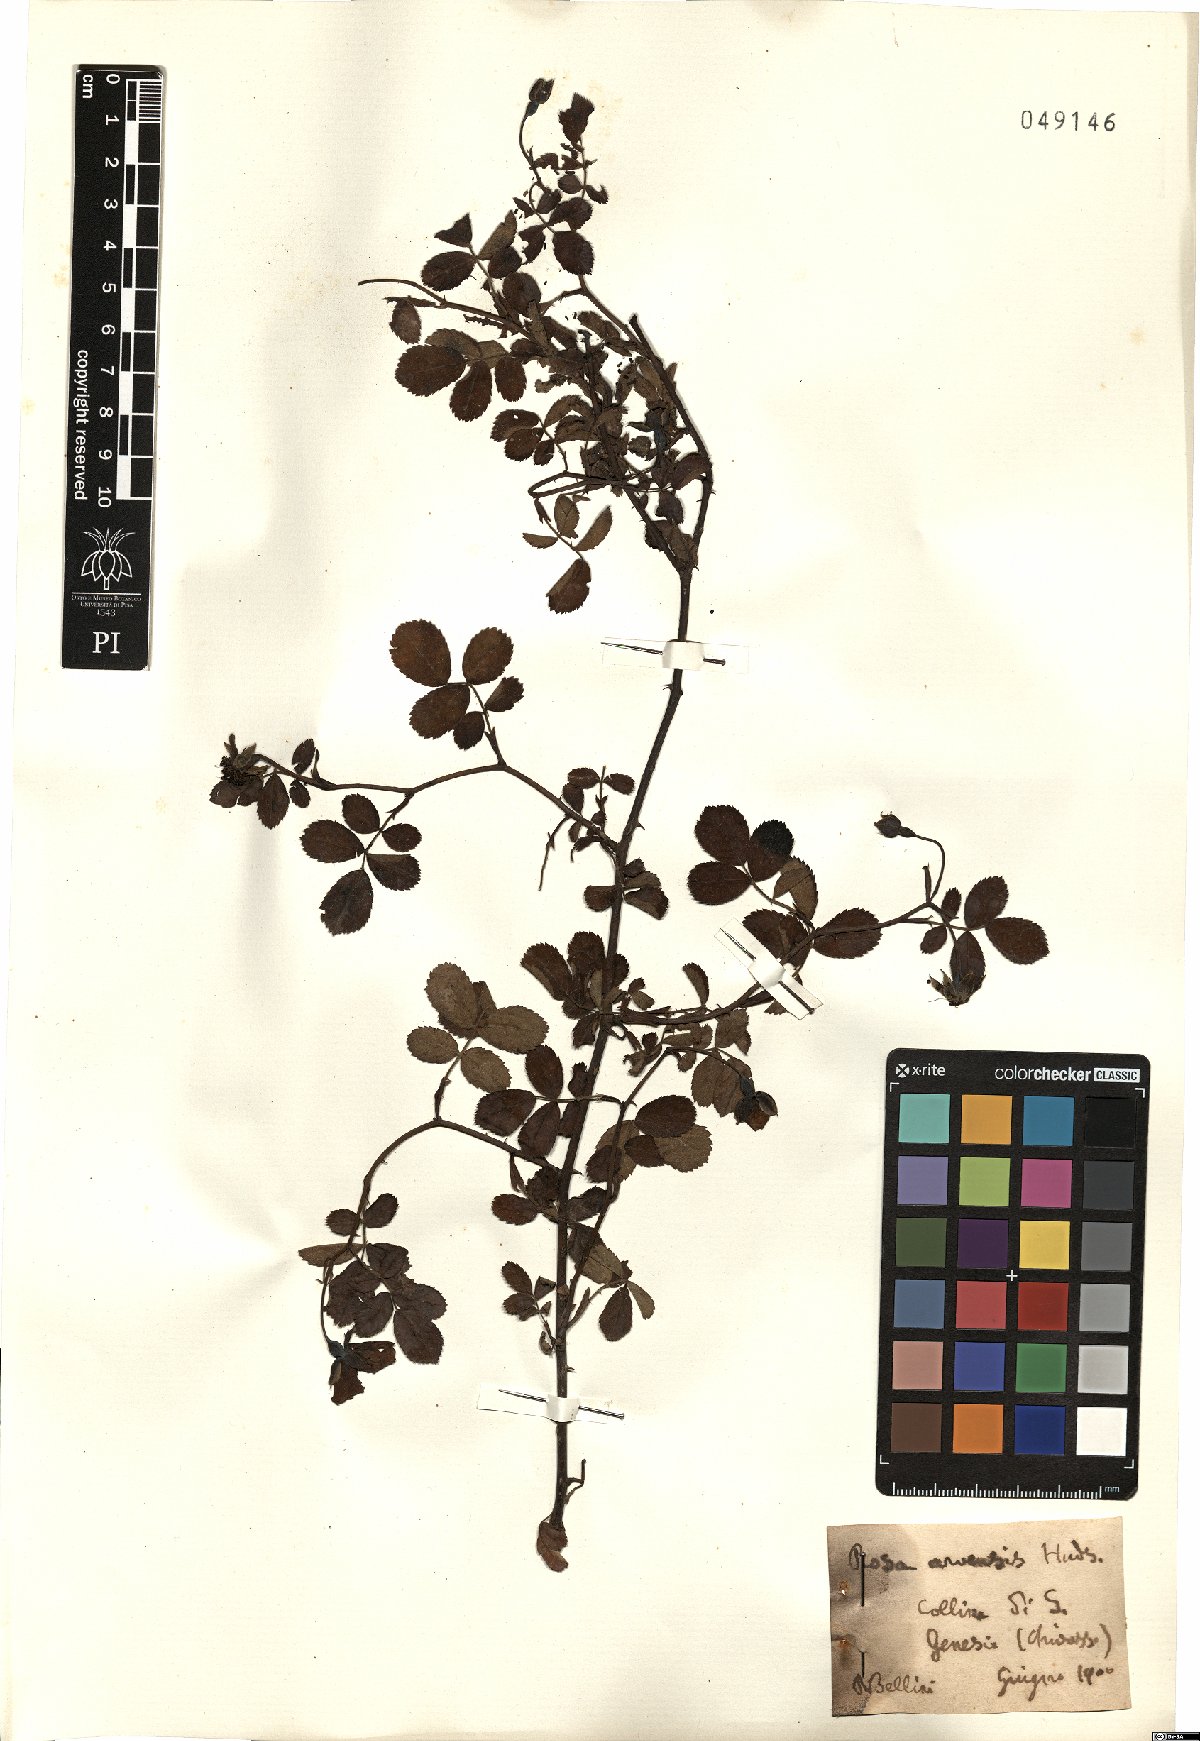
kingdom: Plantae
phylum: Tracheophyta
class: Magnoliopsida
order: Rosales
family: Rosaceae
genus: Rosa
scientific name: Rosa arvensis
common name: Field rose
